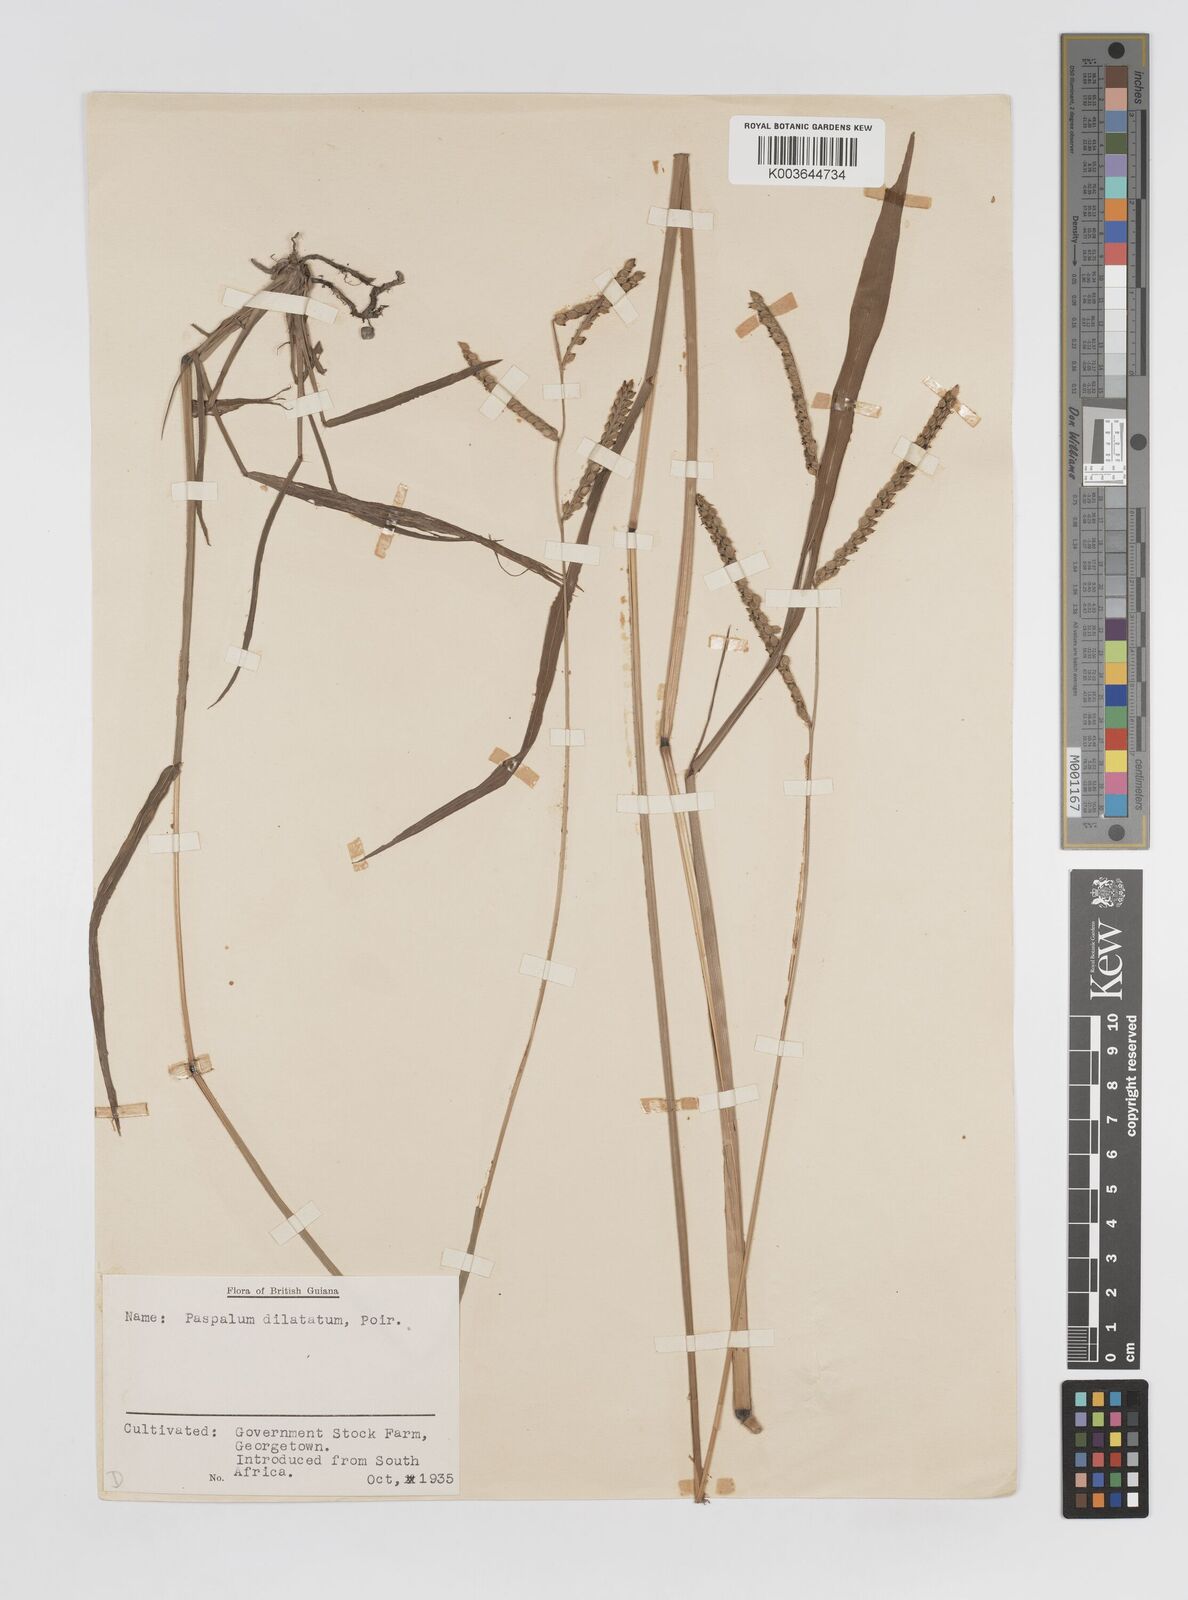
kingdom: Plantae
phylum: Tracheophyta
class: Liliopsida
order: Poales
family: Poaceae
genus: Paspalum
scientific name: Paspalum dilatatum
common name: Dallisgrass
